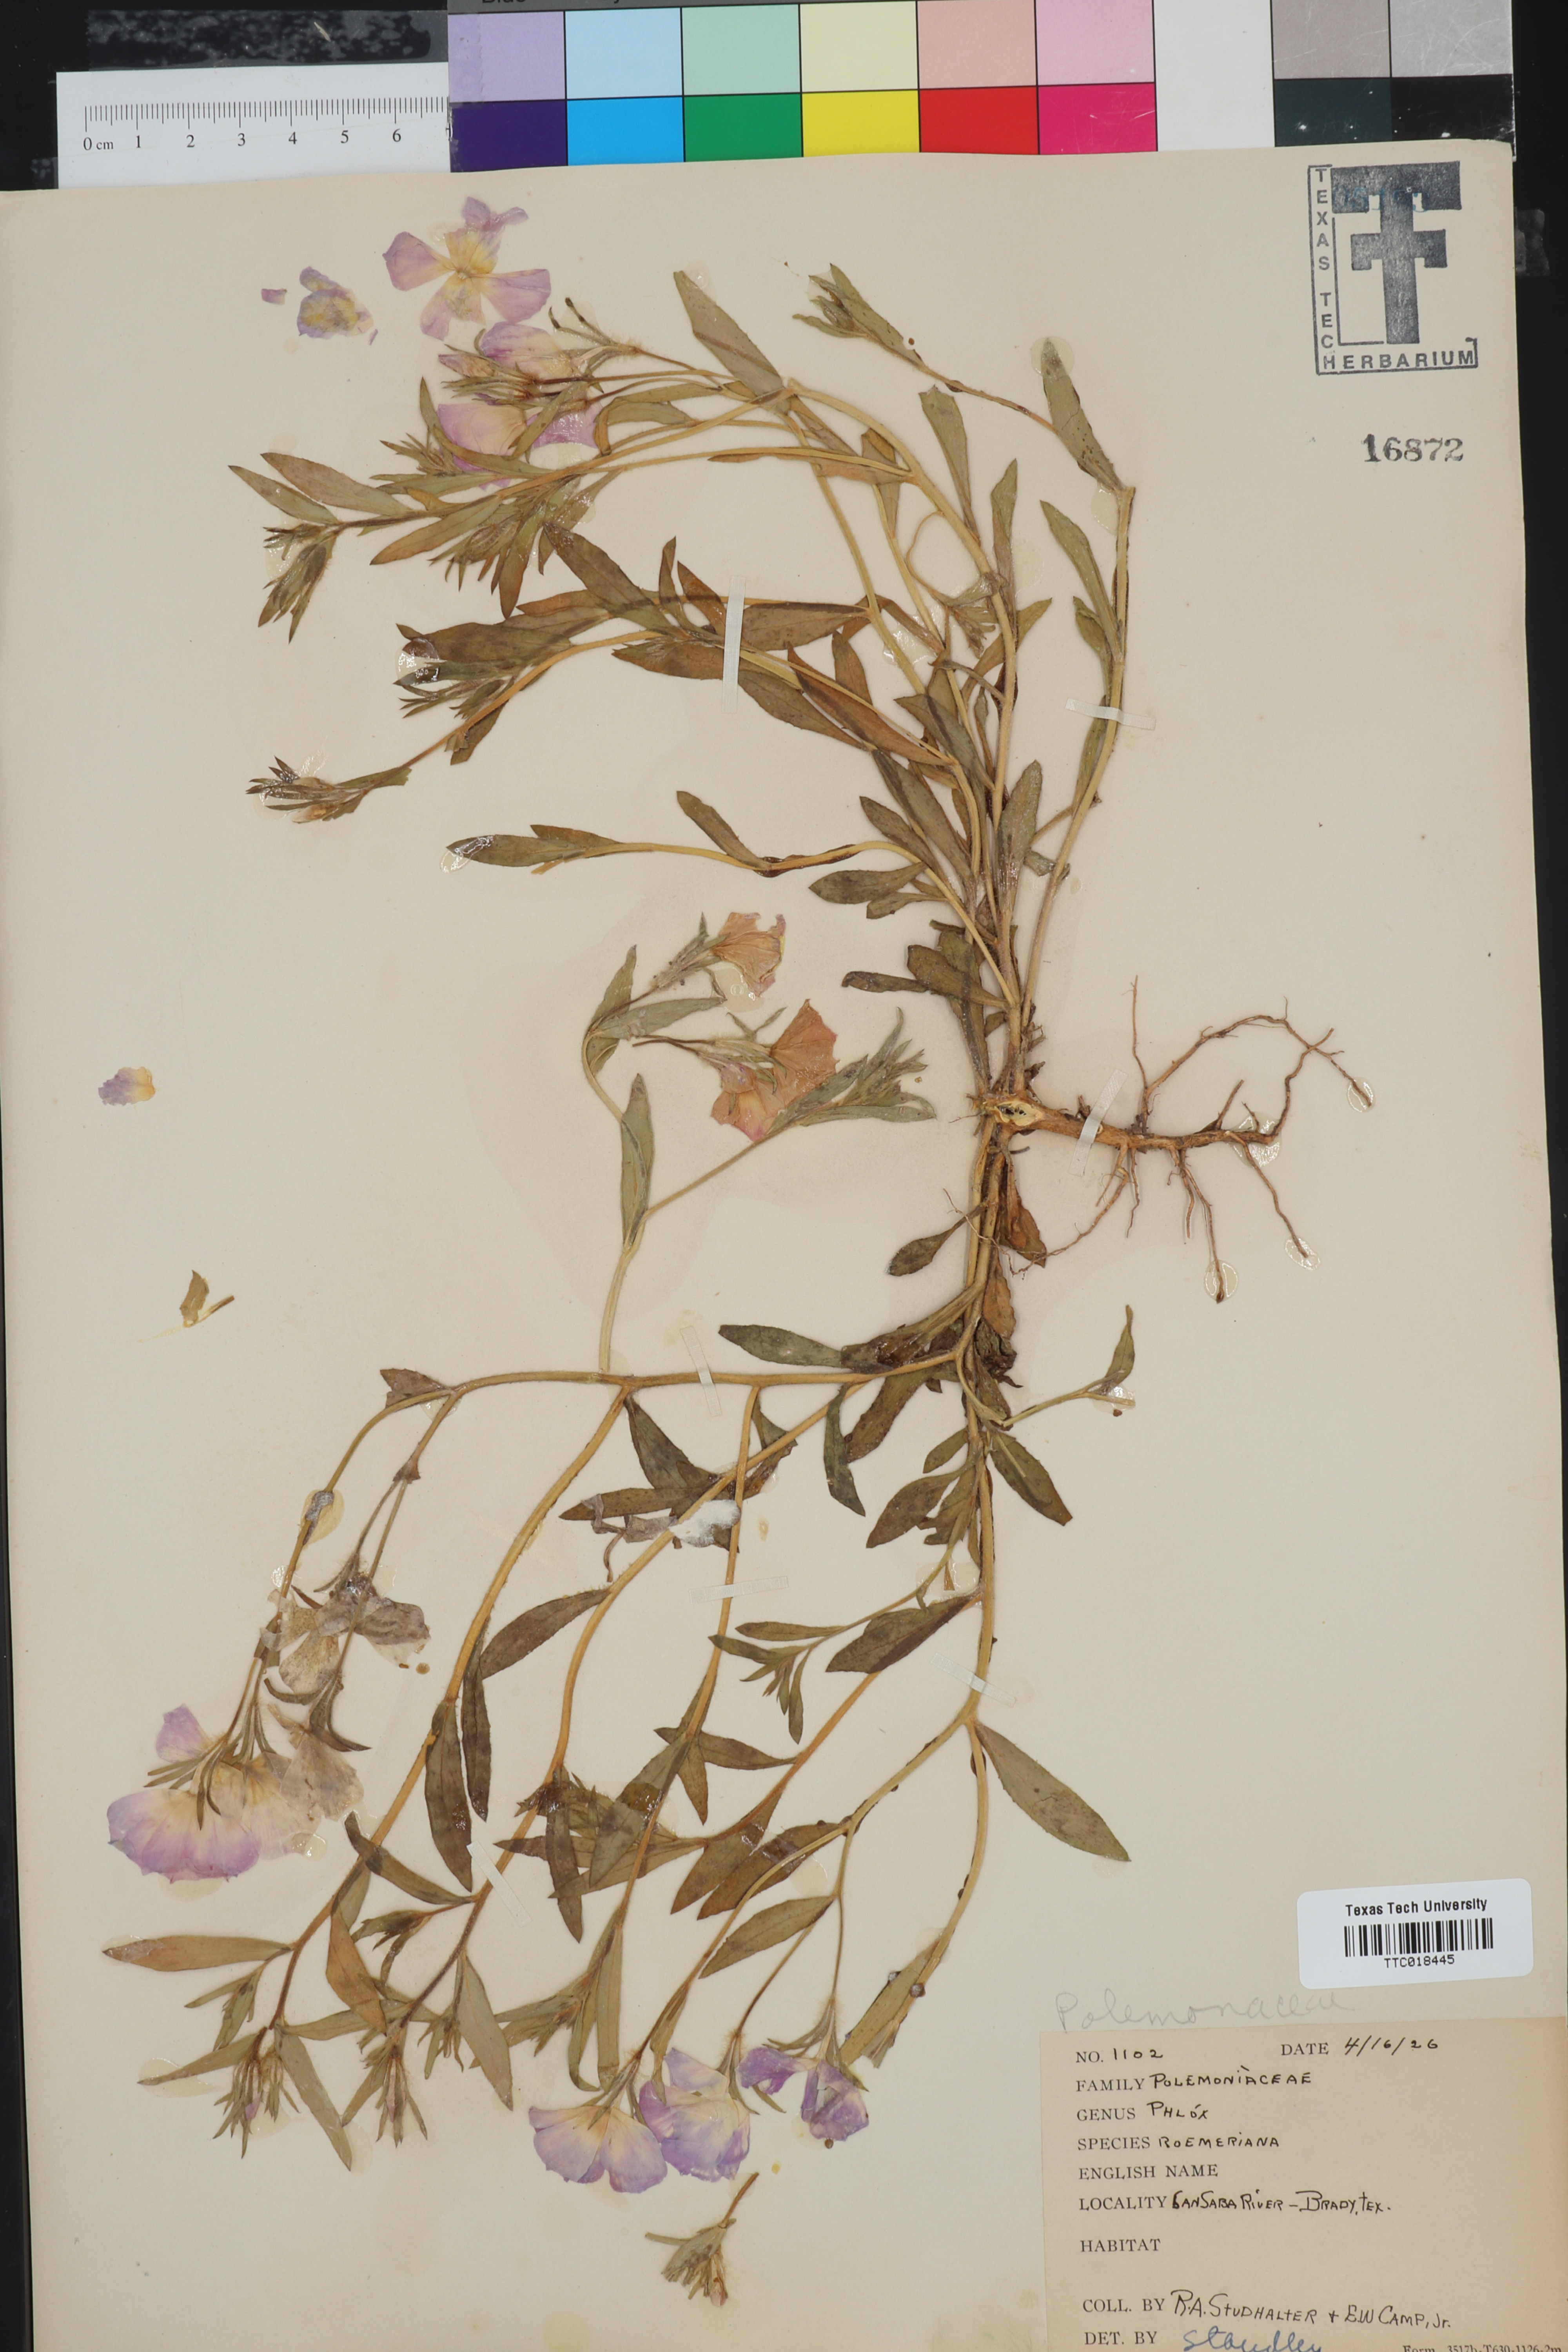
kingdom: Plantae
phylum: Tracheophyta
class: Magnoliopsida
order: Ericales
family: Polemoniaceae
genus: Phlox
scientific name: Phlox roemeriana
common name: Roemer's phlox
